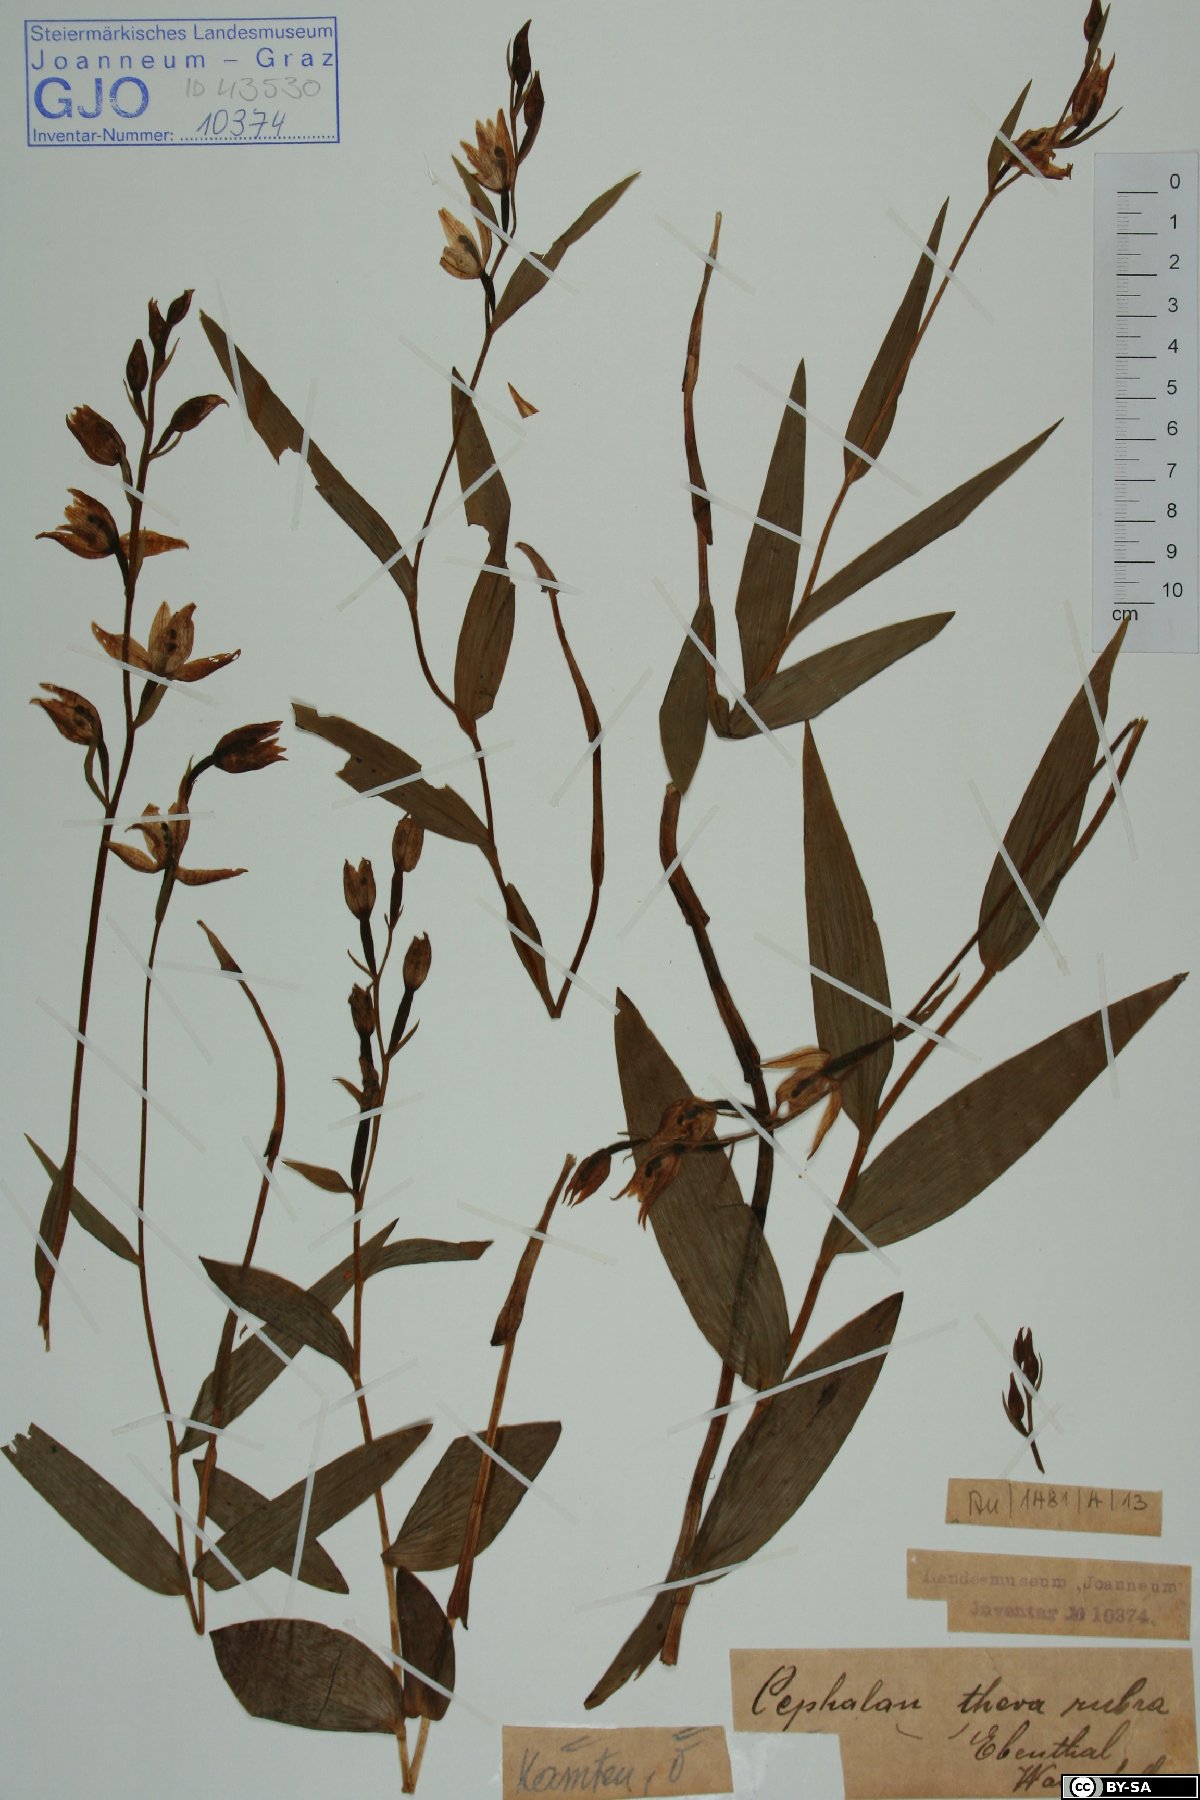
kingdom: Plantae
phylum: Tracheophyta
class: Liliopsida
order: Asparagales
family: Orchidaceae
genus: Cephalanthera
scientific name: Cephalanthera rubra
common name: Red helleborine
